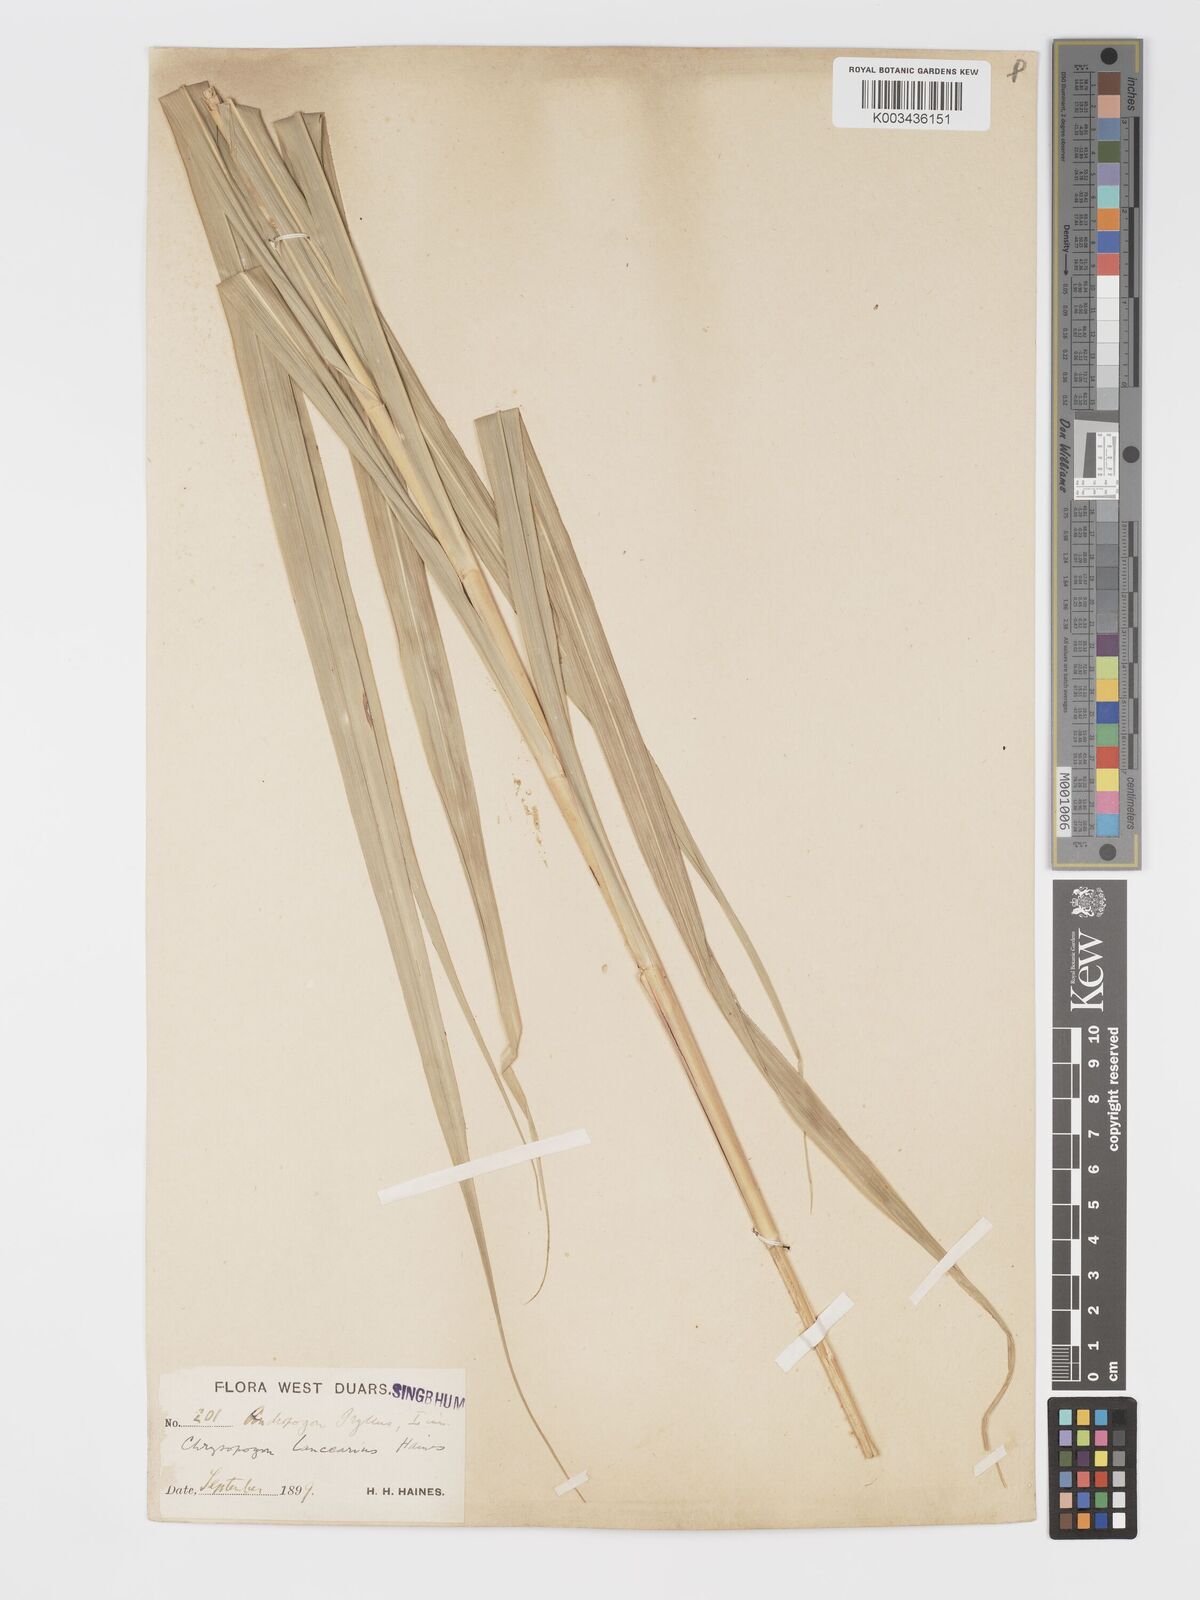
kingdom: Plantae
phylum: Tracheophyta
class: Liliopsida
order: Poales
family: Poaceae
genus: Chrysopogon
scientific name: Chrysopogon lancearius
